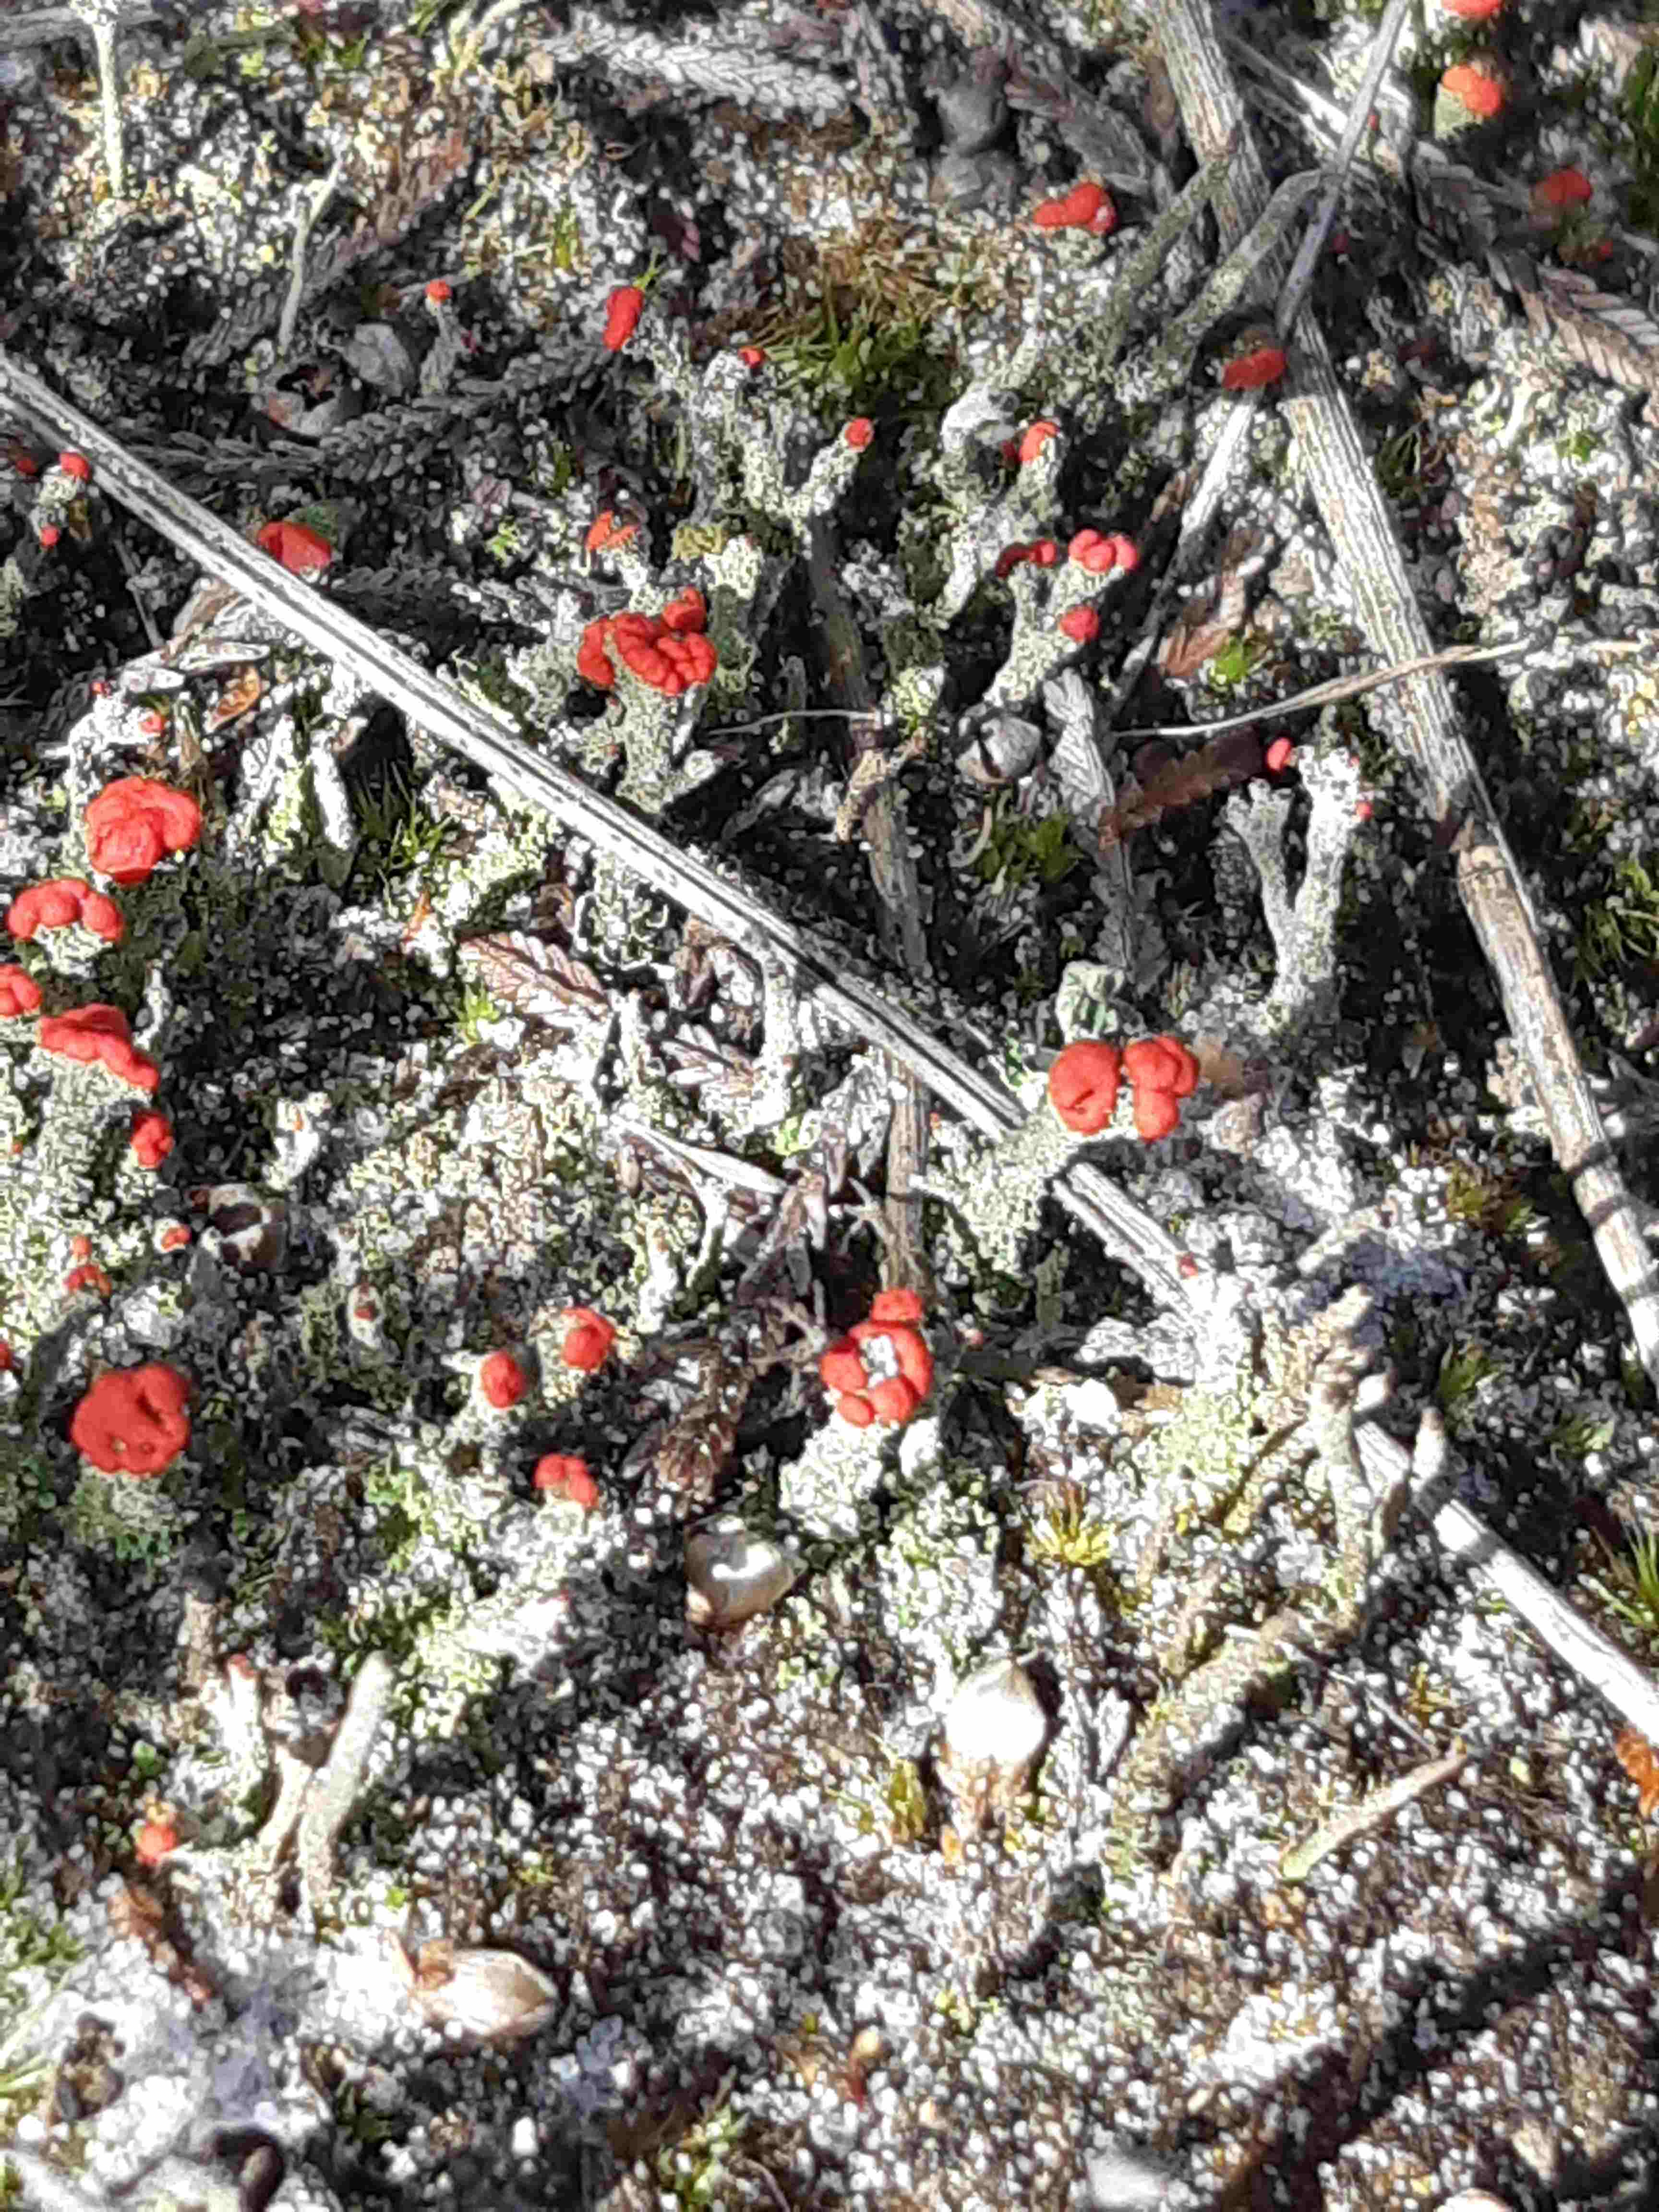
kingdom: Fungi
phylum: Ascomycota
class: Lecanoromycetes
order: Lecanorales
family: Cladoniaceae
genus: Cladonia
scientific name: Cladonia floerkeana
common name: lakrød bægerlav
